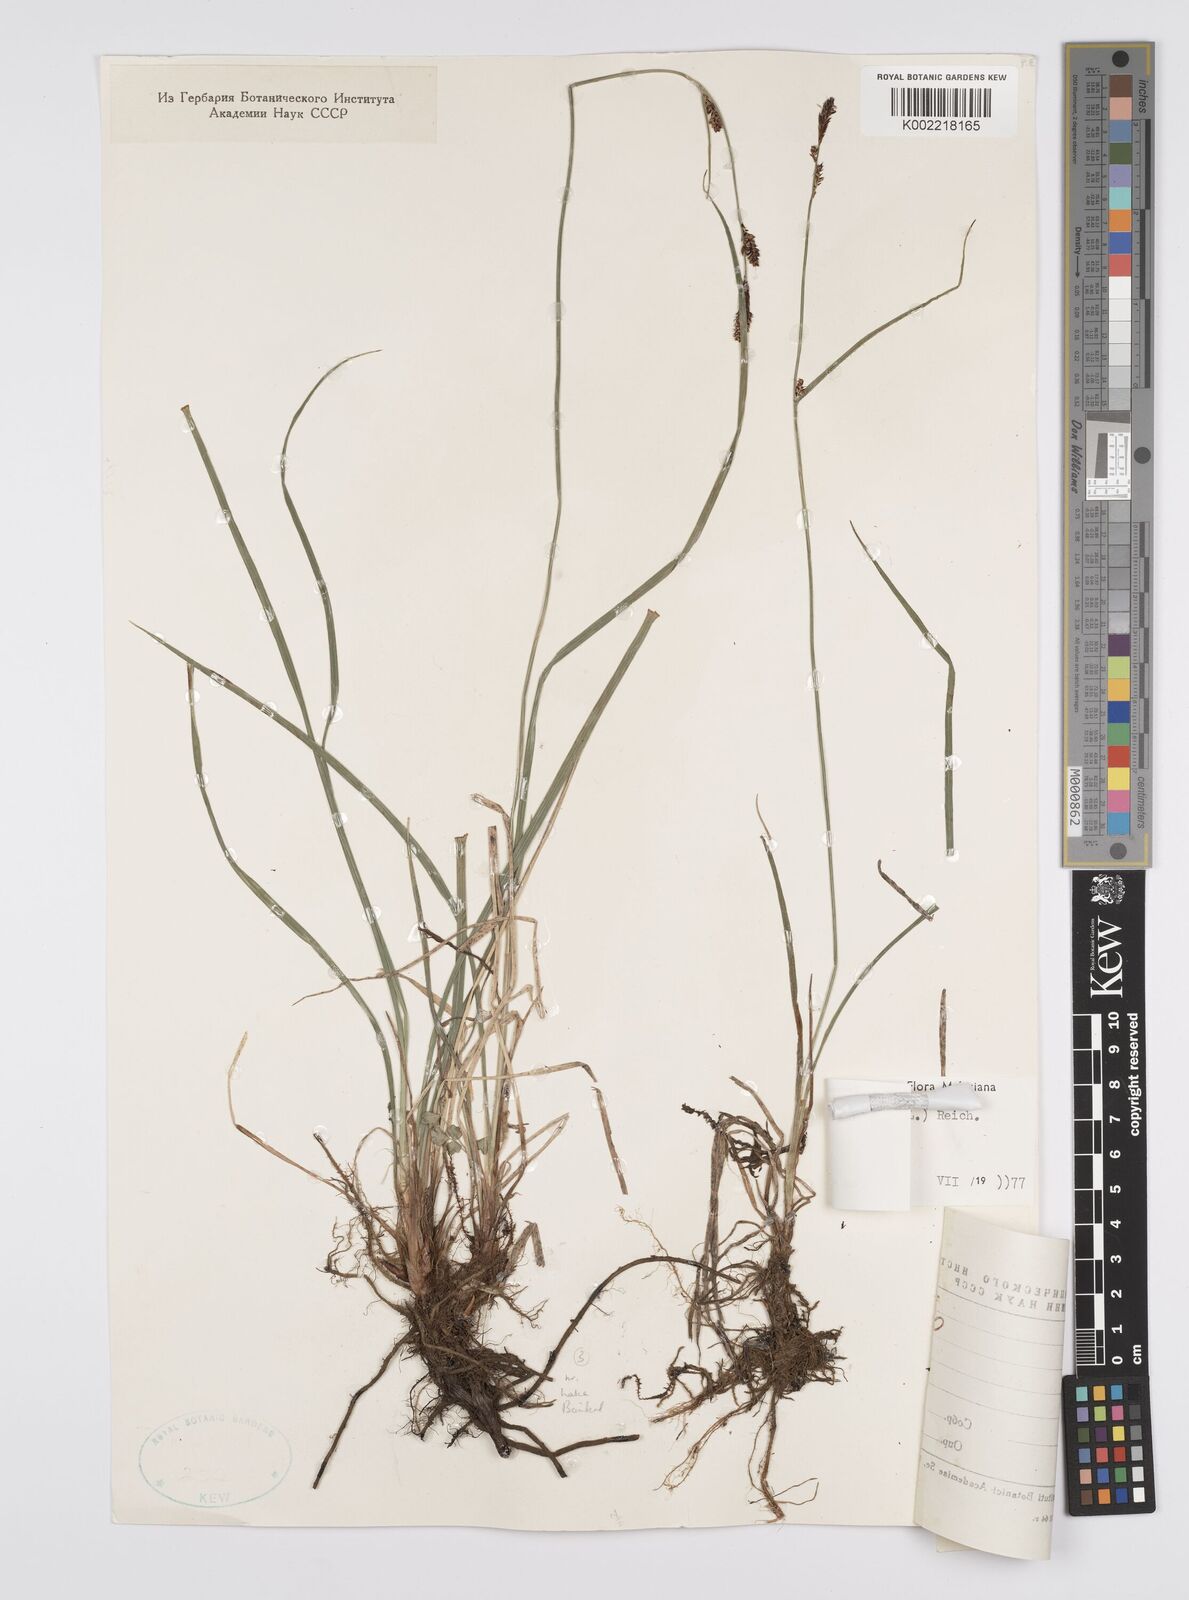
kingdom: Plantae
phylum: Tracheophyta
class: Liliopsida
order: Poales
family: Cyperaceae
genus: Carex
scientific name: Carex nigra
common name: Common sedge
